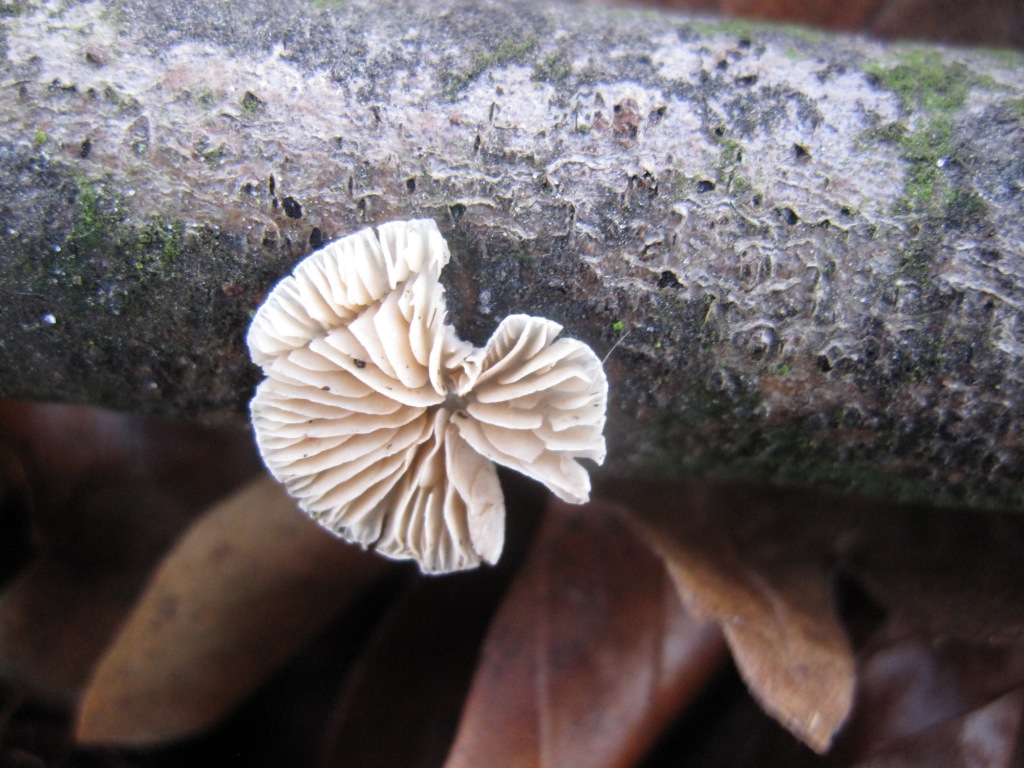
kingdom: Fungi
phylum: Basidiomycota
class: Agaricomycetes
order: Agaricales
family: Crepidotaceae
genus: Crepidotus
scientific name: Crepidotus cesatii
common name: almindelig muslingesvamp
